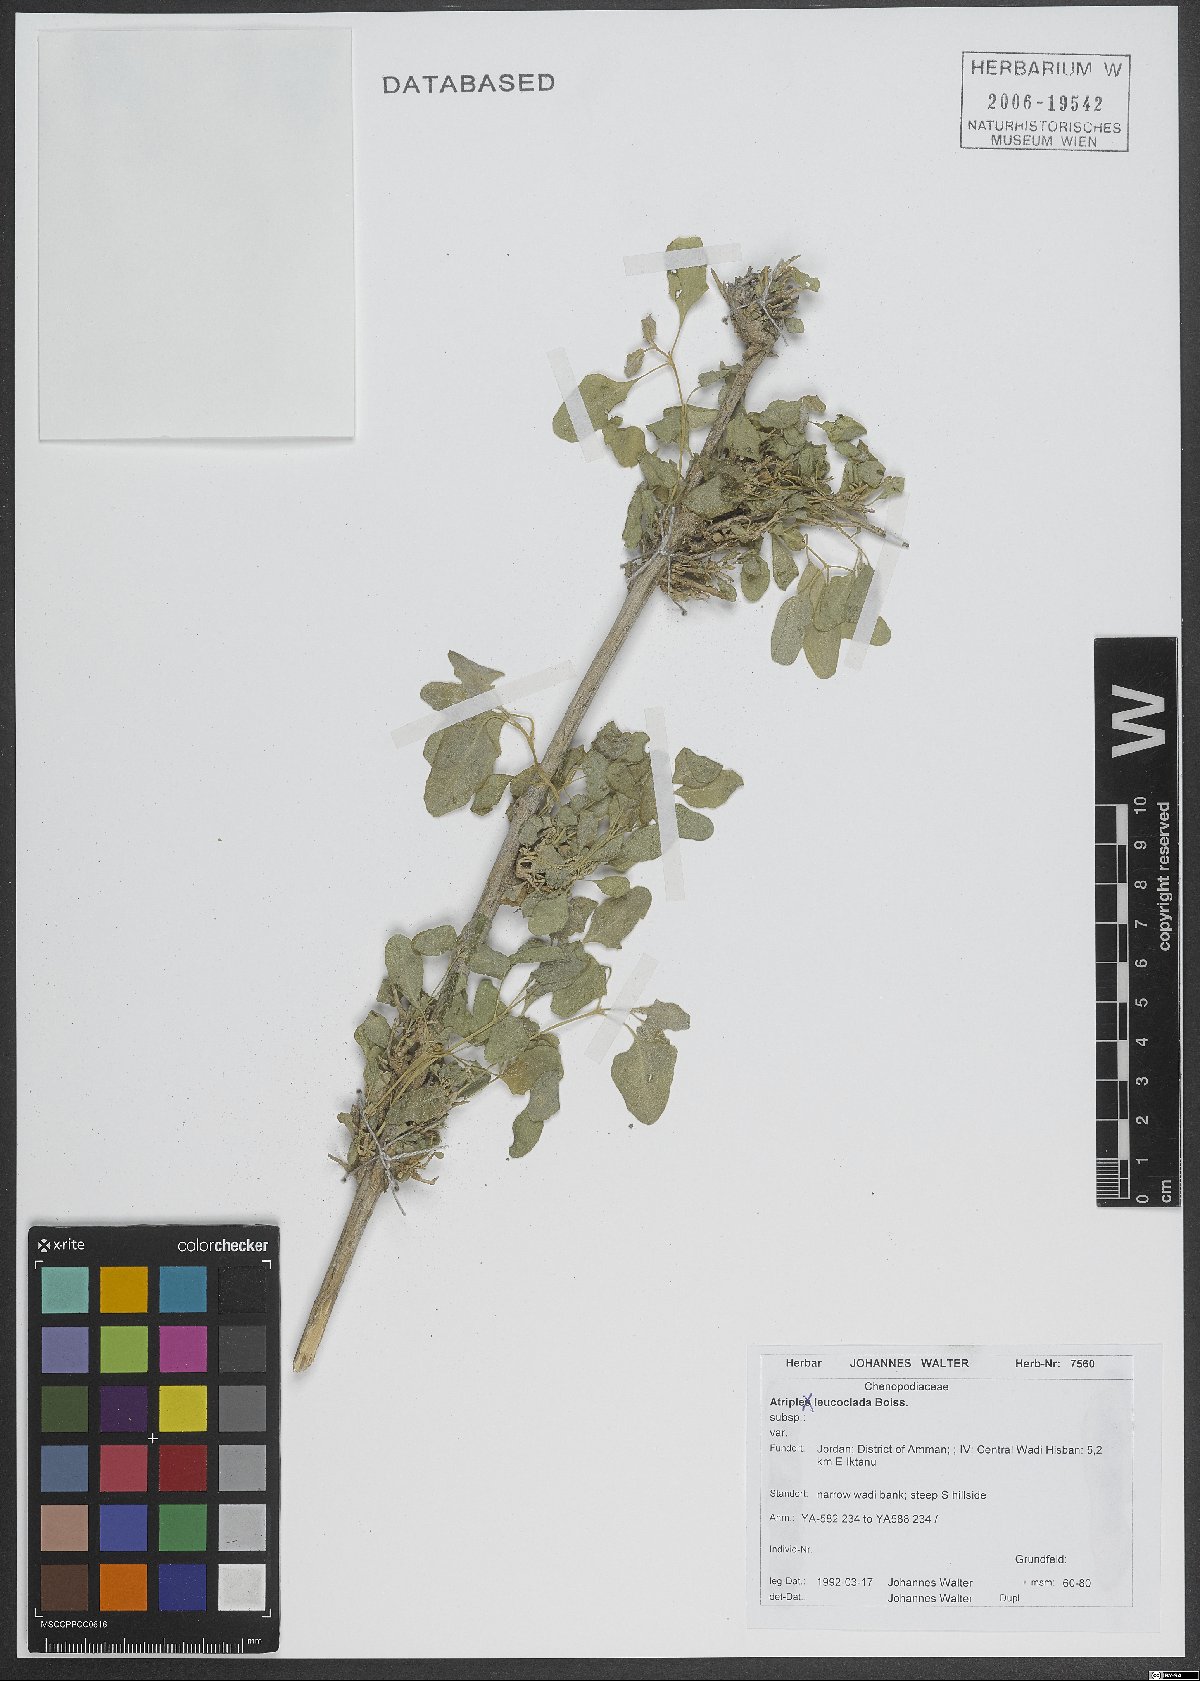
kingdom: Plantae
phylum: Tracheophyta
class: Magnoliopsida
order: Caryophyllales
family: Amaranthaceae
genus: Atriplex
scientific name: Atriplex turcomanica
